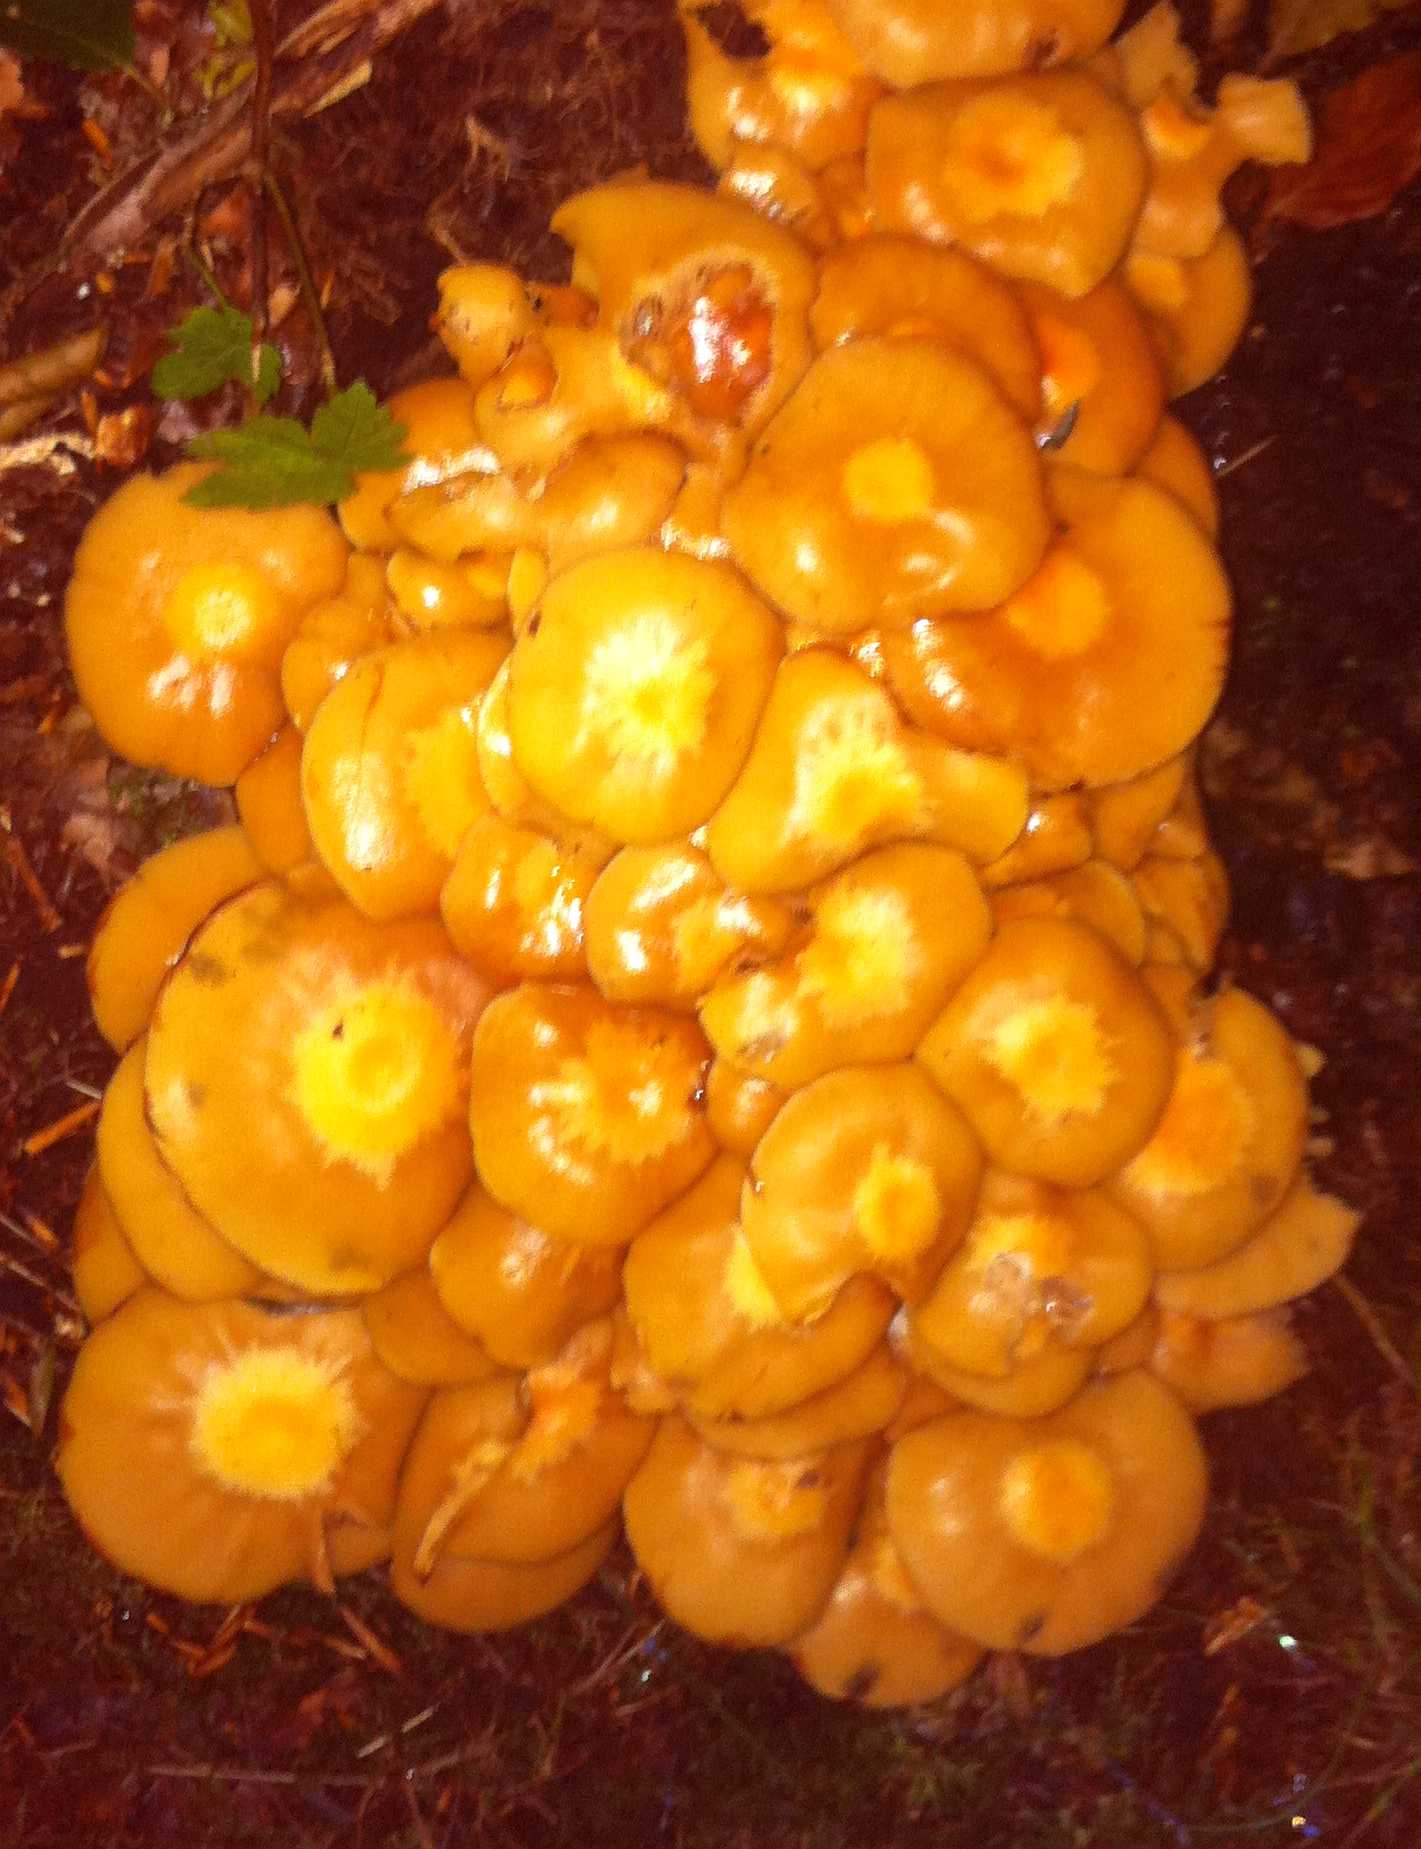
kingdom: Fungi
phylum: Basidiomycota
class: Agaricomycetes
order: Agaricales
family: Strophariaceae
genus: Kuehneromyces
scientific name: Kuehneromyces mutabilis
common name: foranderlig skælhat
